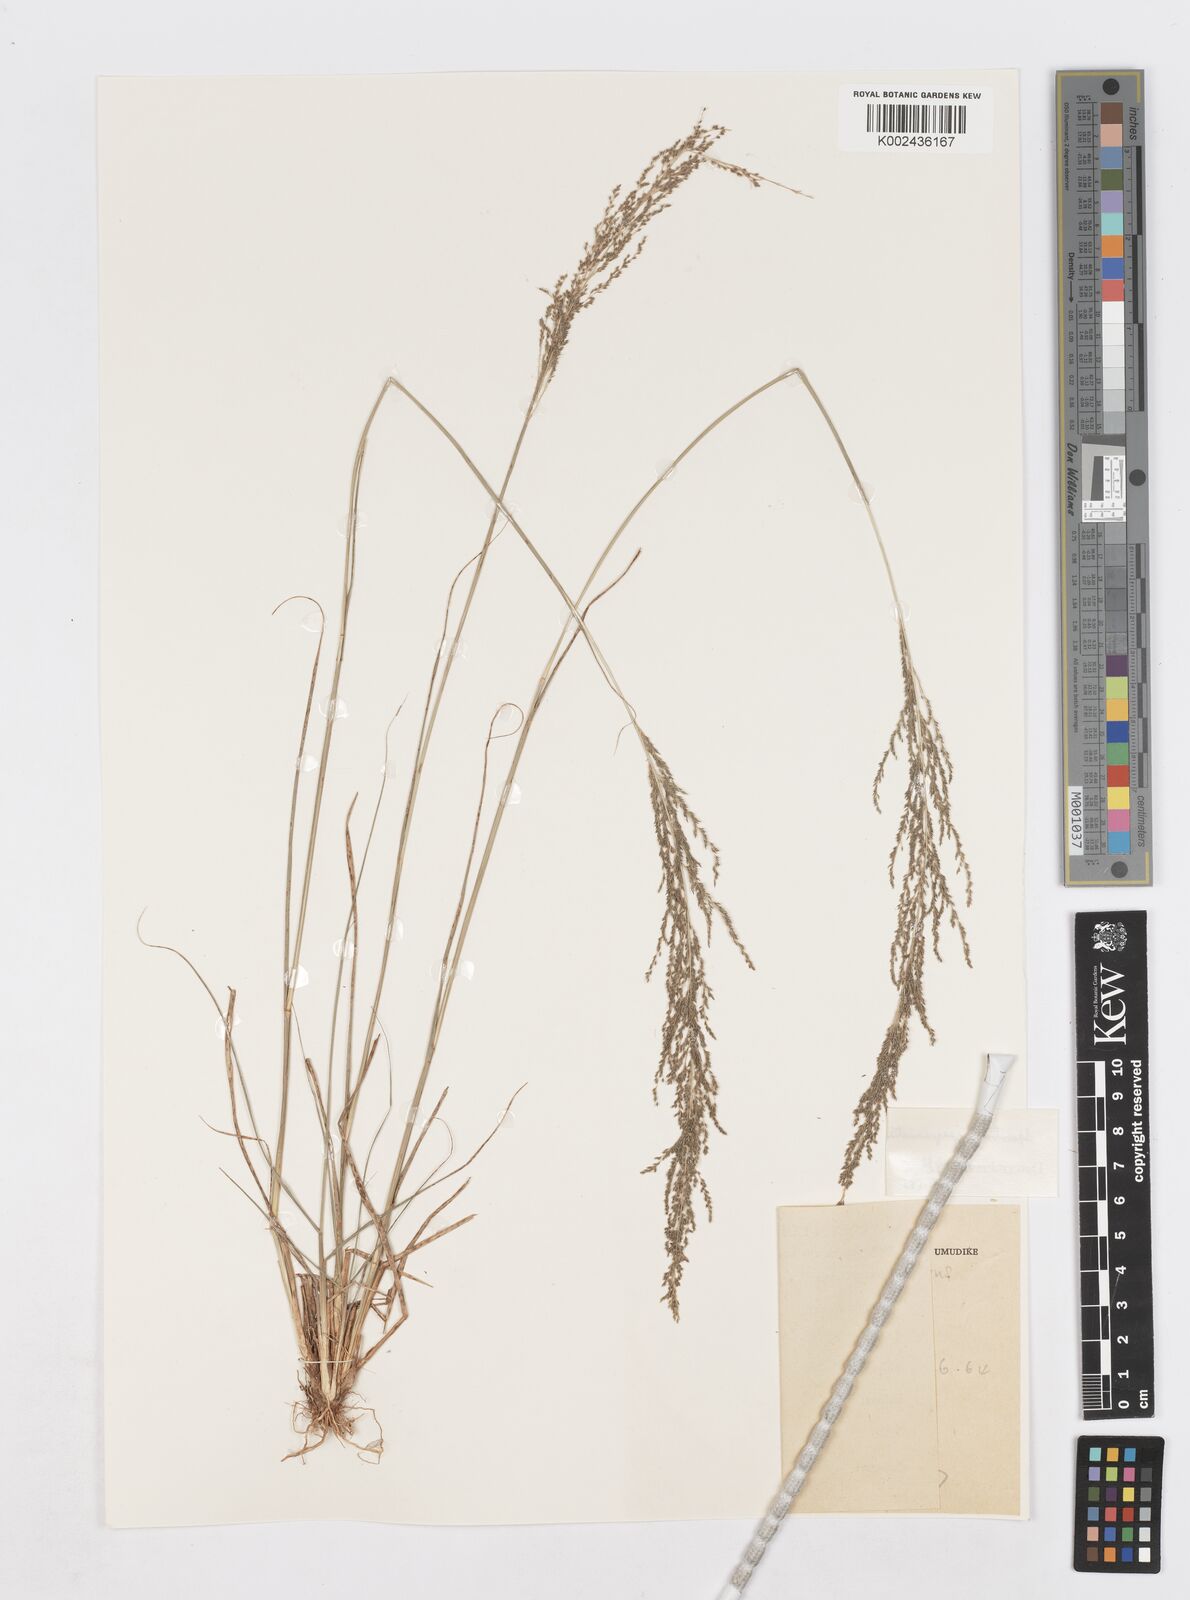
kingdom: Plantae
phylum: Tracheophyta
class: Liliopsida
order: Poales
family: Poaceae
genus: Sporobolus
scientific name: Sporobolus pyramidalis
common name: West indian dropseed
